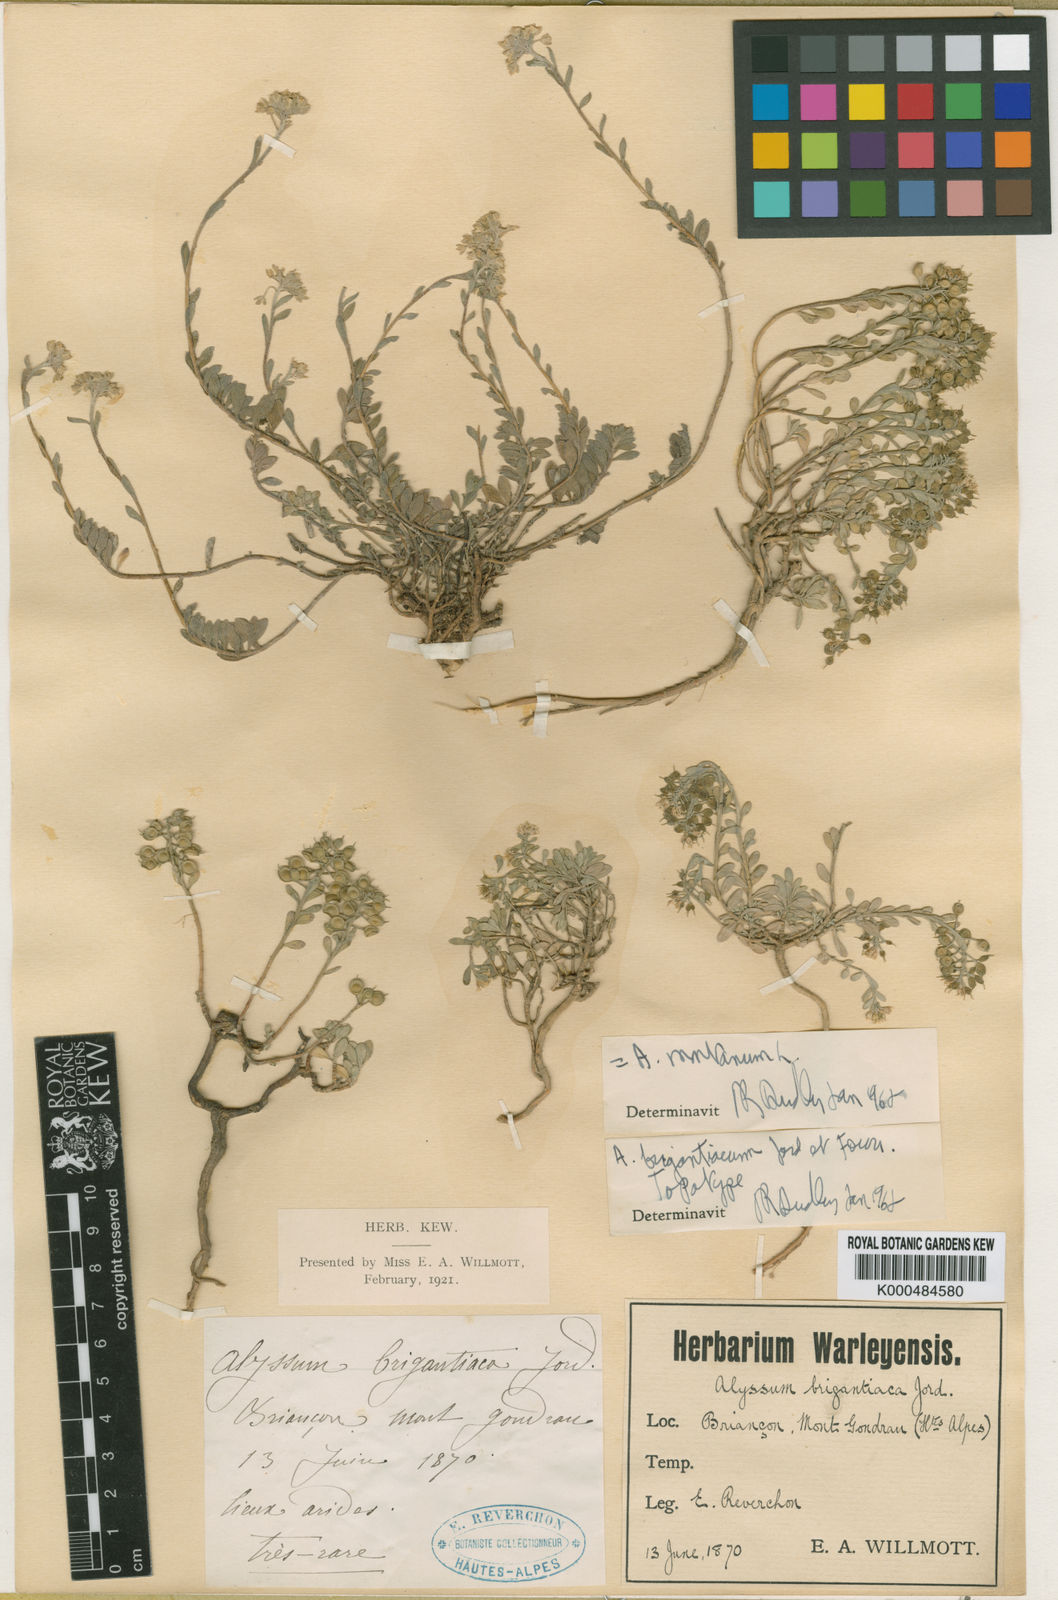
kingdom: Plantae
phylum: Tracheophyta
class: Magnoliopsida
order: Brassicales
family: Brassicaceae
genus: Alyssum
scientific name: Alyssum cuneifolium
